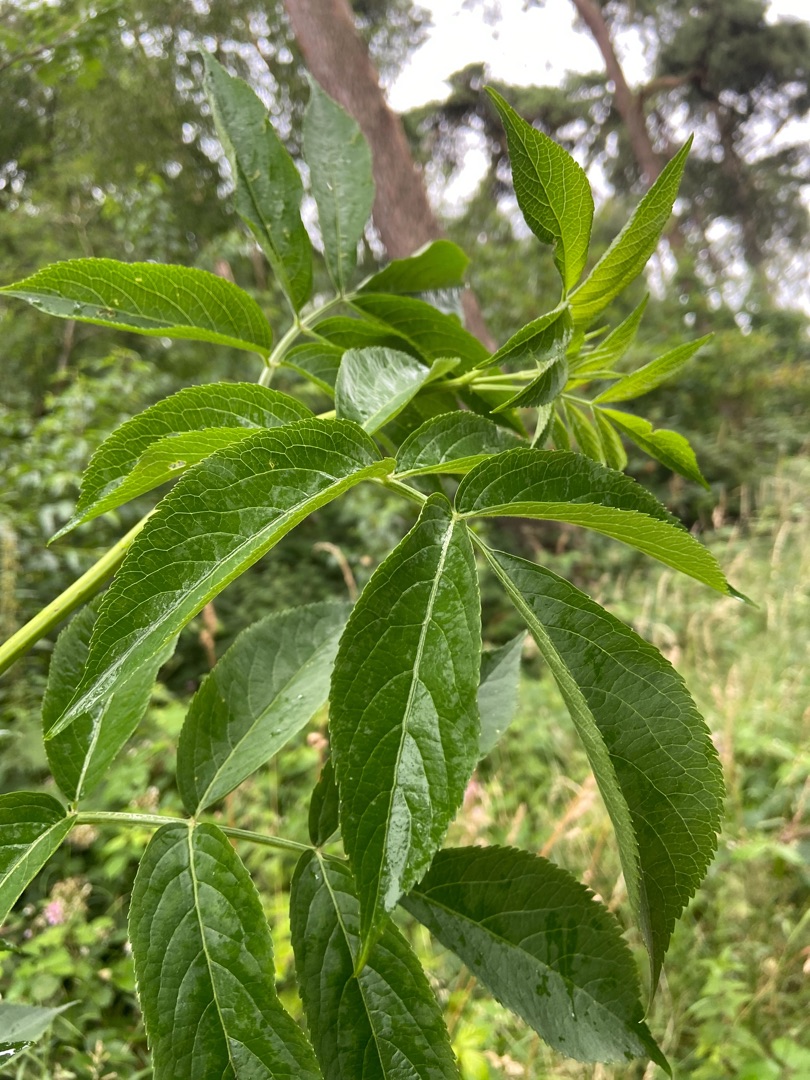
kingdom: Plantae
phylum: Tracheophyta
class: Magnoliopsida
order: Dipsacales
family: Viburnaceae
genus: Sambucus
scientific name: Sambucus nigra
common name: Almindelig hyld
